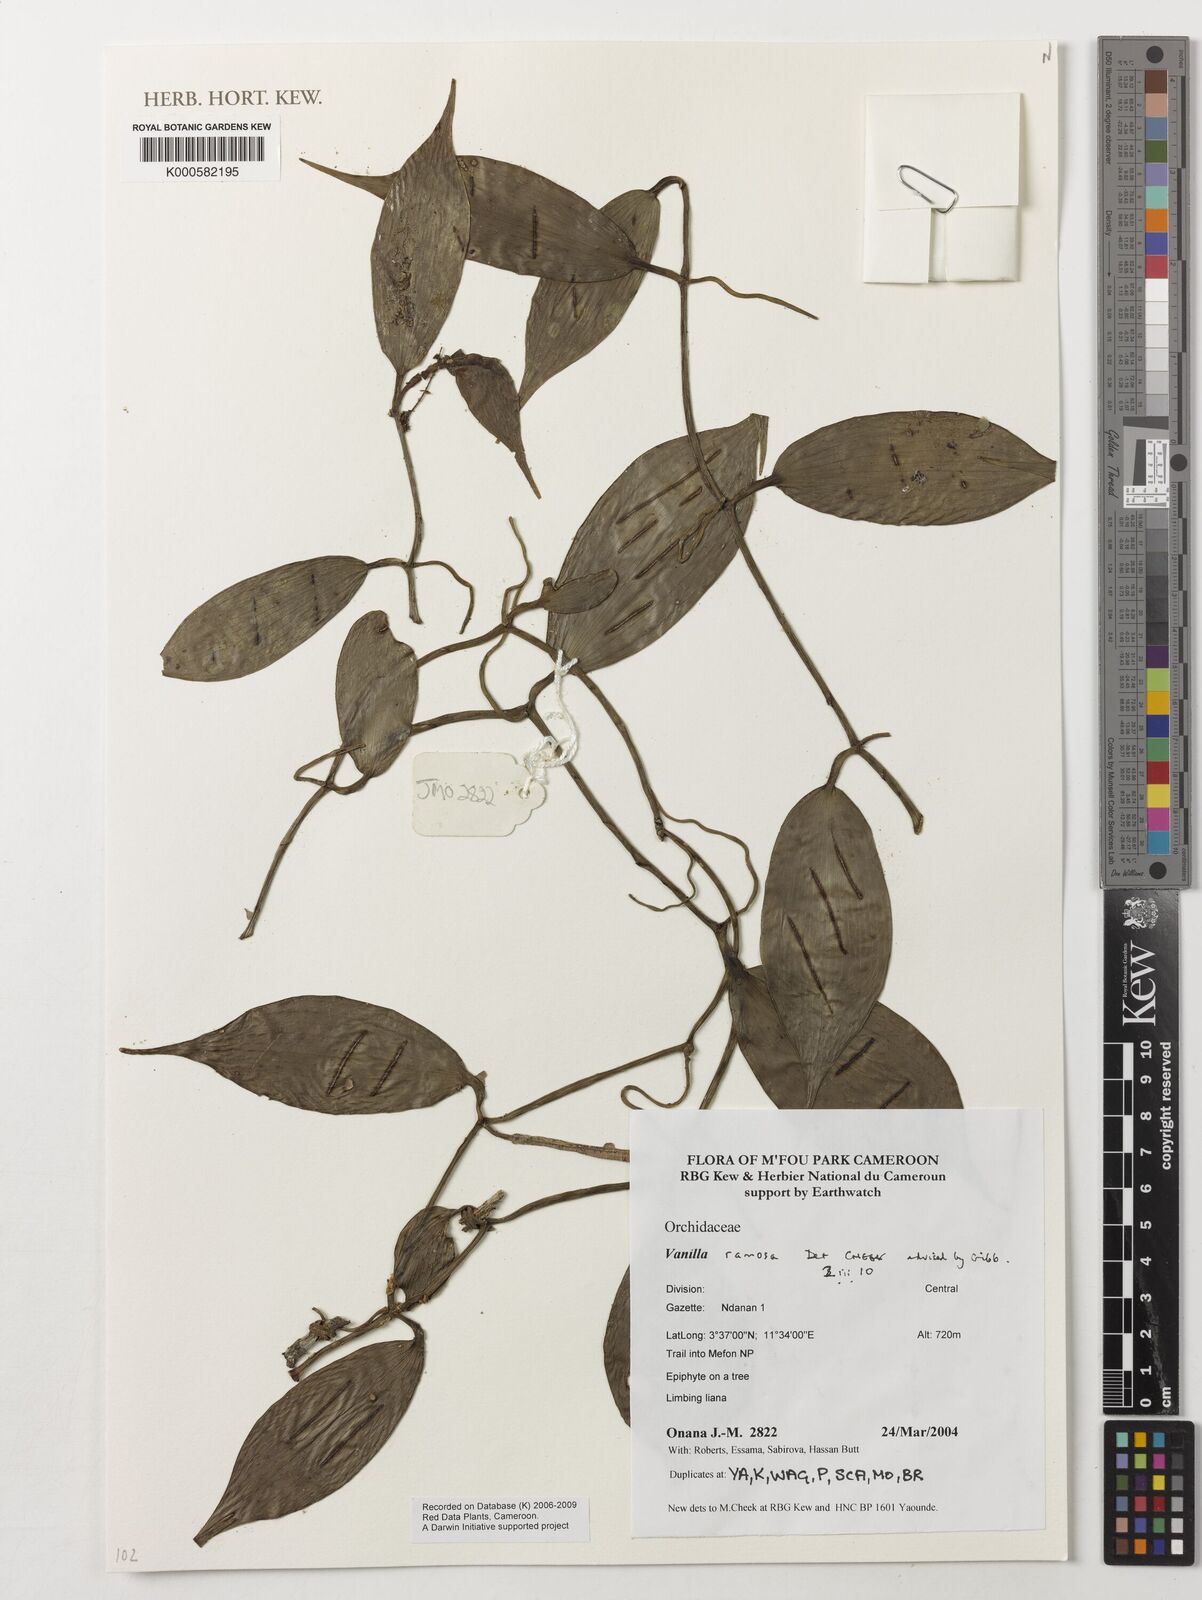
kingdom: Plantae
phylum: Tracheophyta
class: Liliopsida
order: Asparagales
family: Orchidaceae
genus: Vanilla
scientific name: Vanilla ramosa
